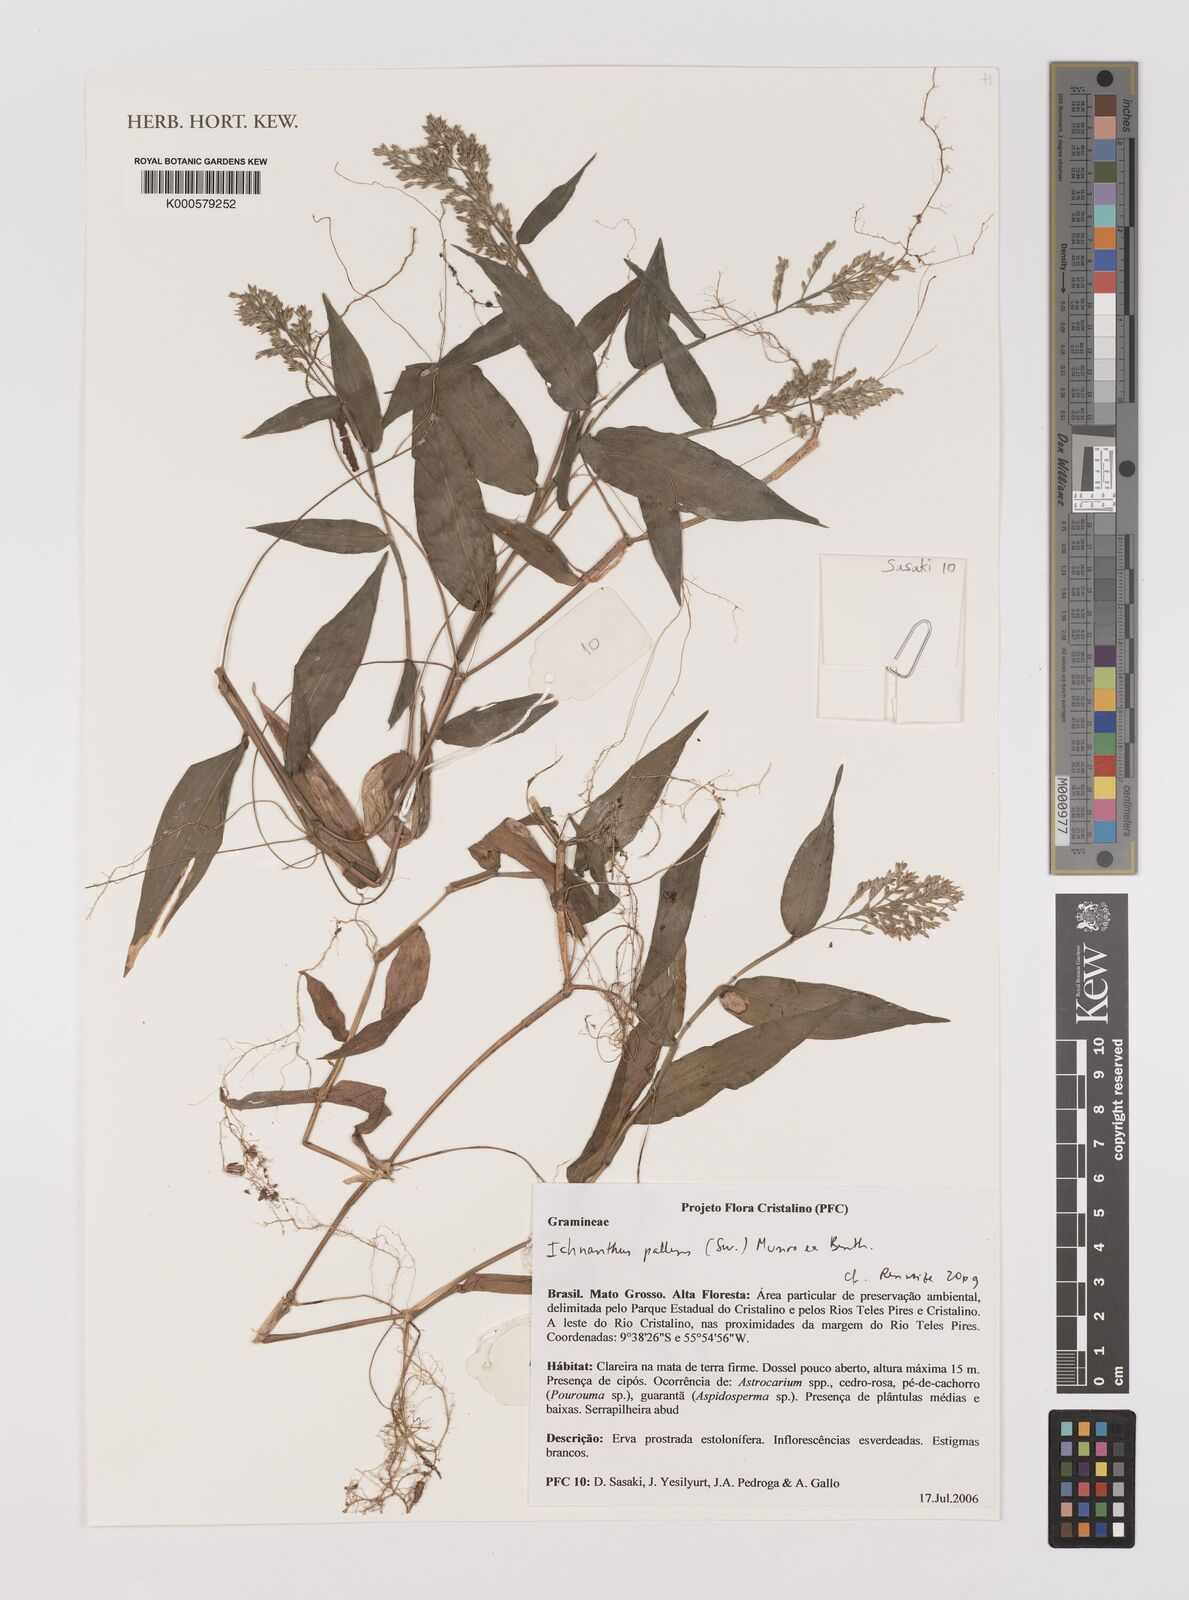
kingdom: Plantae
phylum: Tracheophyta
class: Liliopsida
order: Poales
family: Poaceae
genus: Ichnanthus
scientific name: Ichnanthus pallens
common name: Water grass
